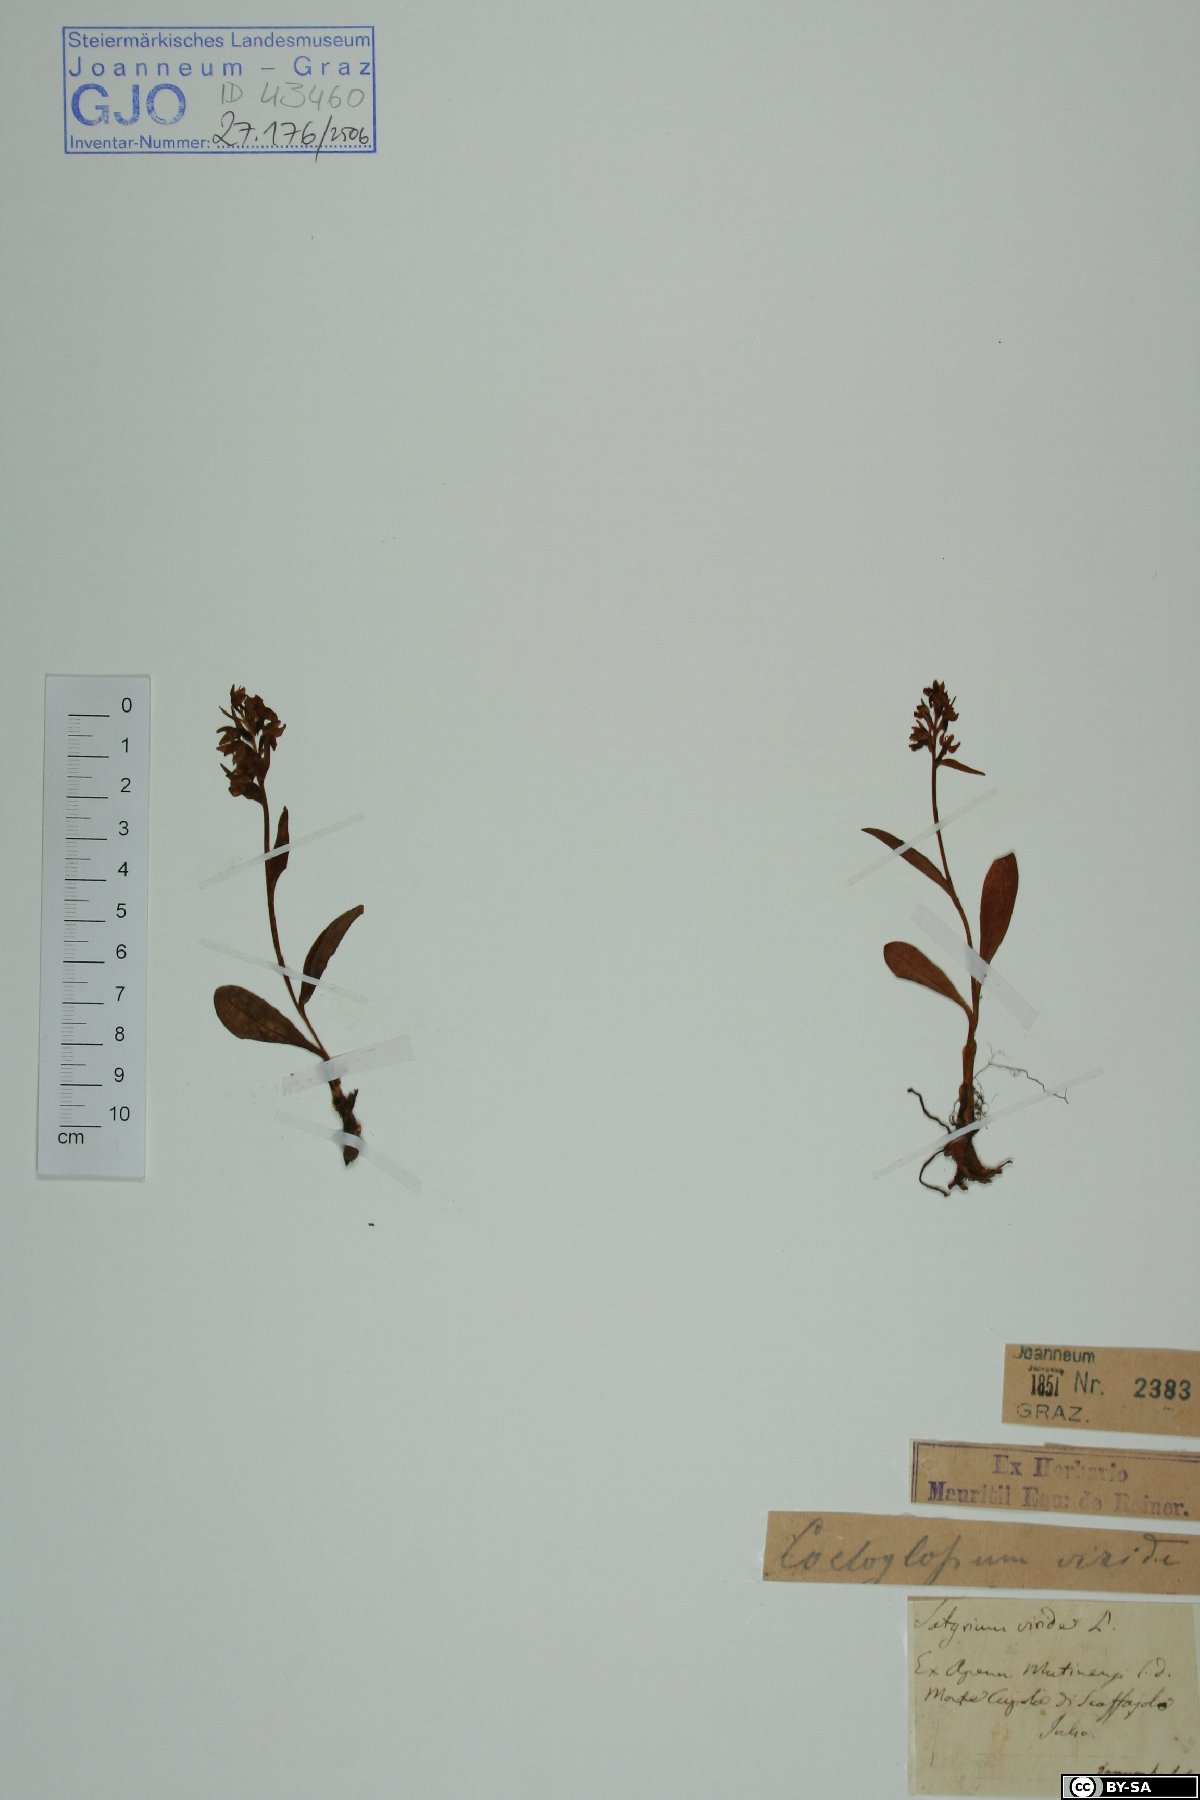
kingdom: Plantae
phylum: Tracheophyta
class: Liliopsida
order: Asparagales
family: Orchidaceae
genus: Dactylorhiza
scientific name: Dactylorhiza viridis
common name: Longbract frog orchid
